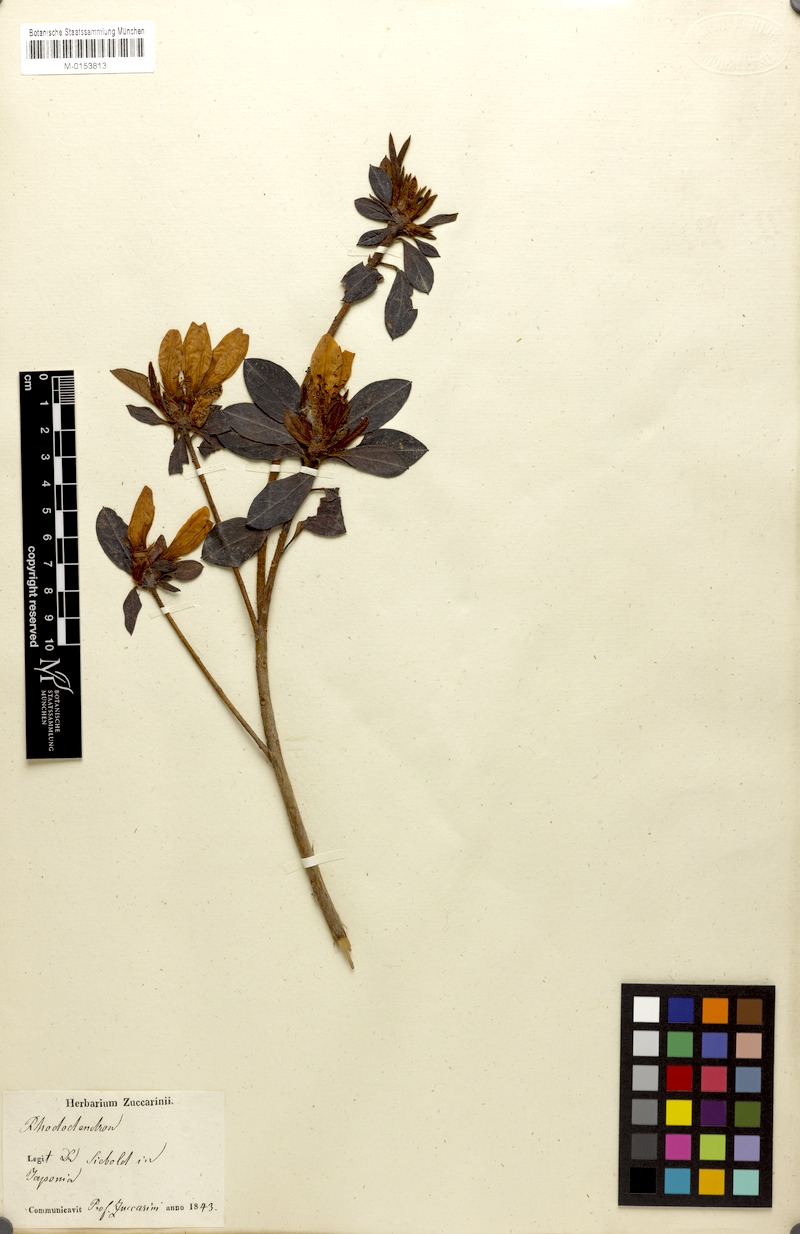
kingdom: Plantae
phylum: Tracheophyta
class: Magnoliopsida
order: Ericales
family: Ericaceae
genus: Rhododendron
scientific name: Rhododendron mucronatum
